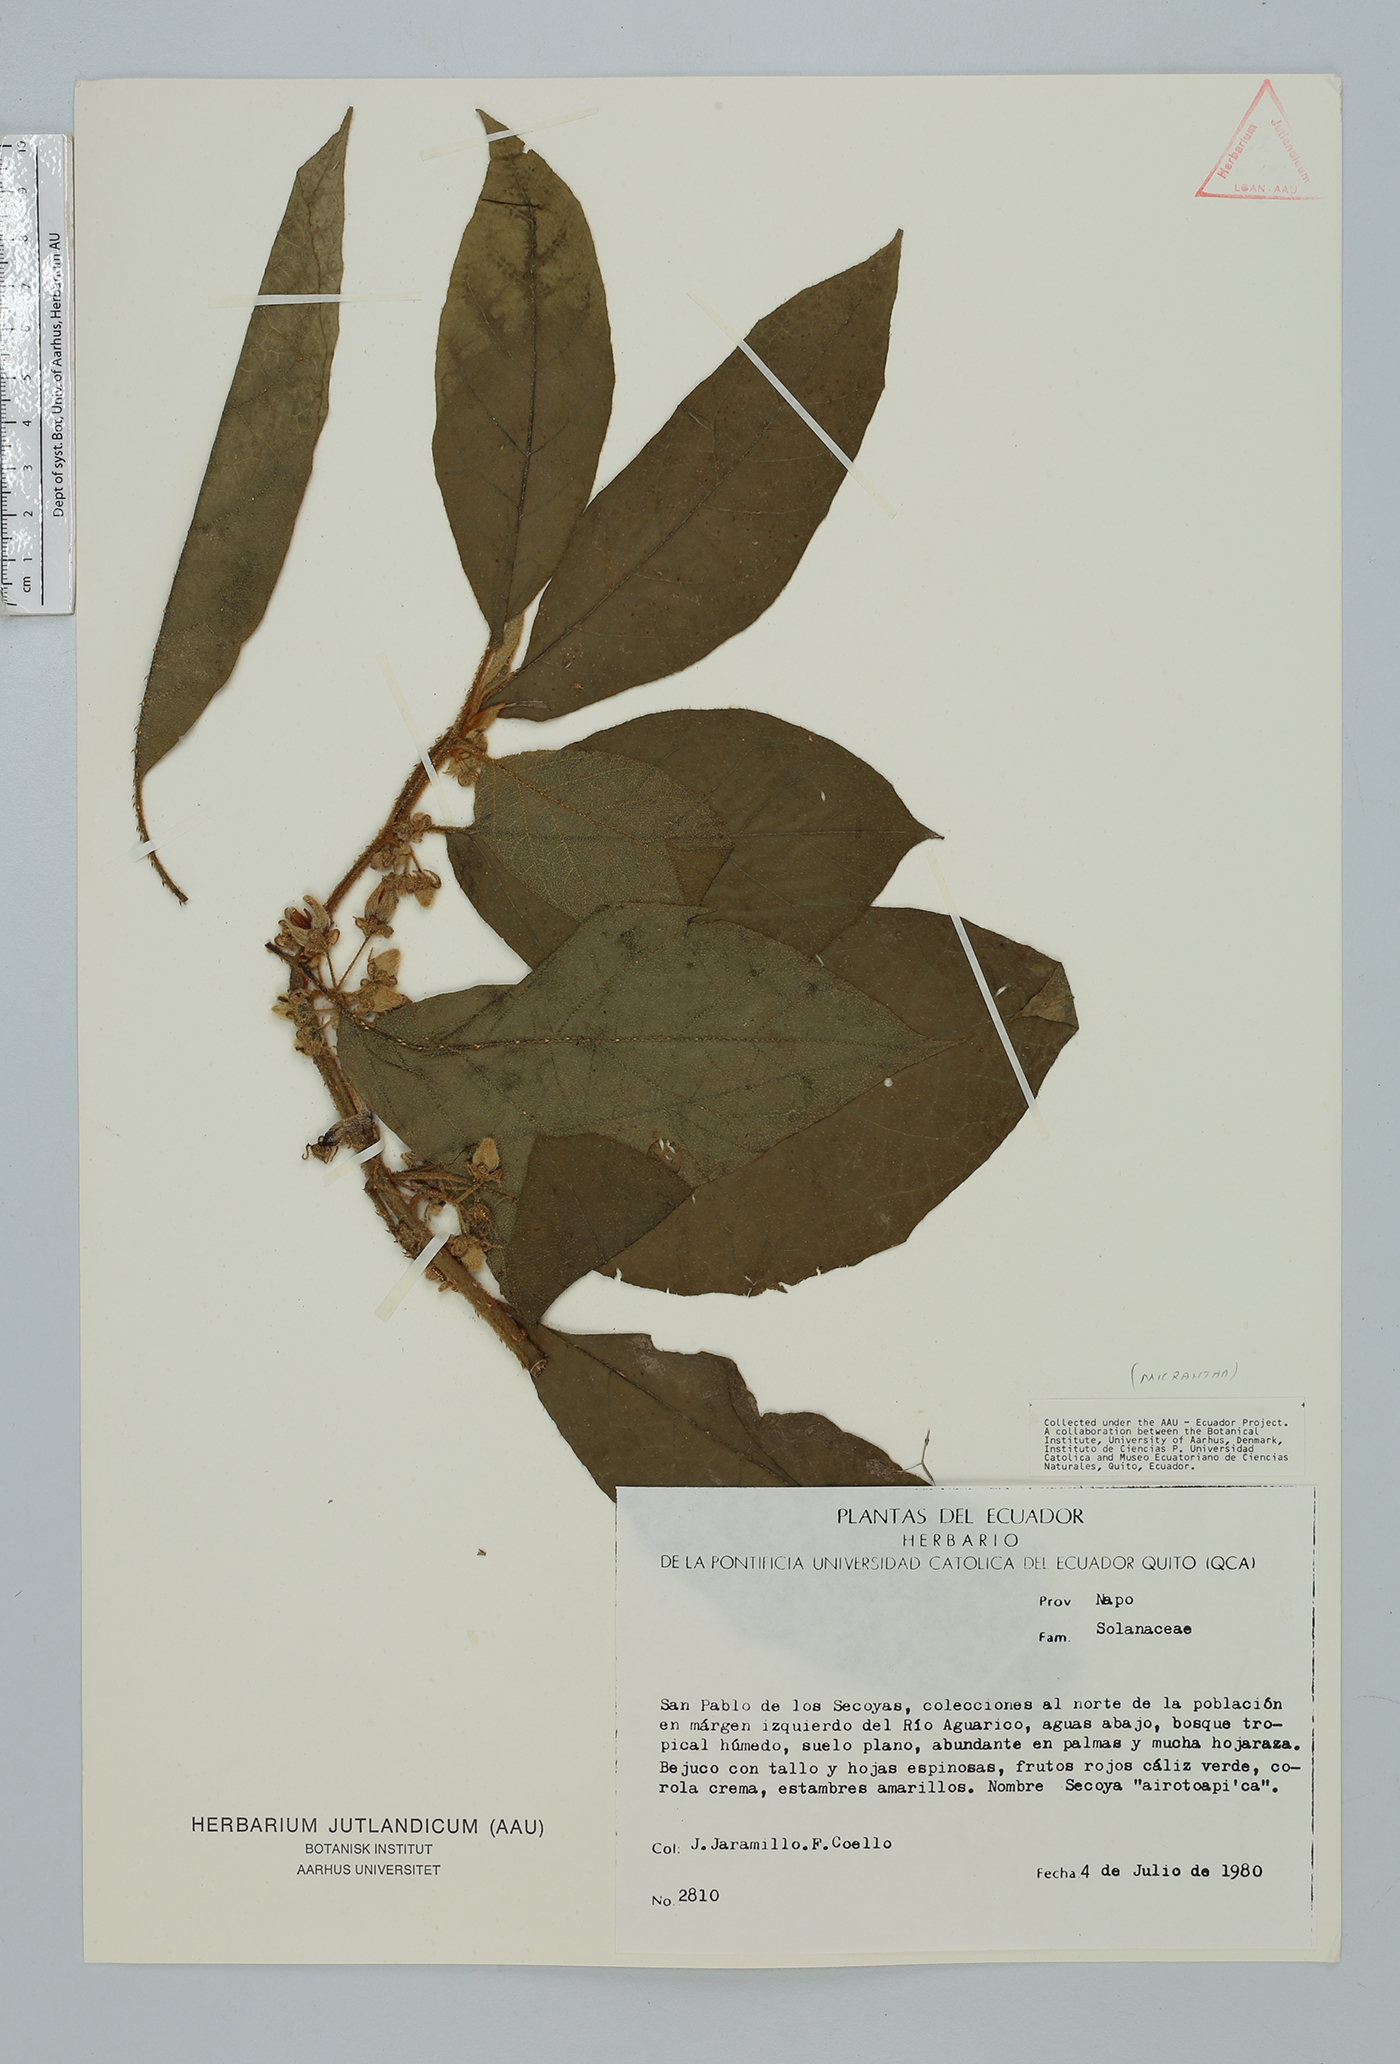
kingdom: Plantae
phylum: Tracheophyta
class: Magnoliopsida
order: Solanales
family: Solanaceae
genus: Solanum
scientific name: Solanum leucopogon
